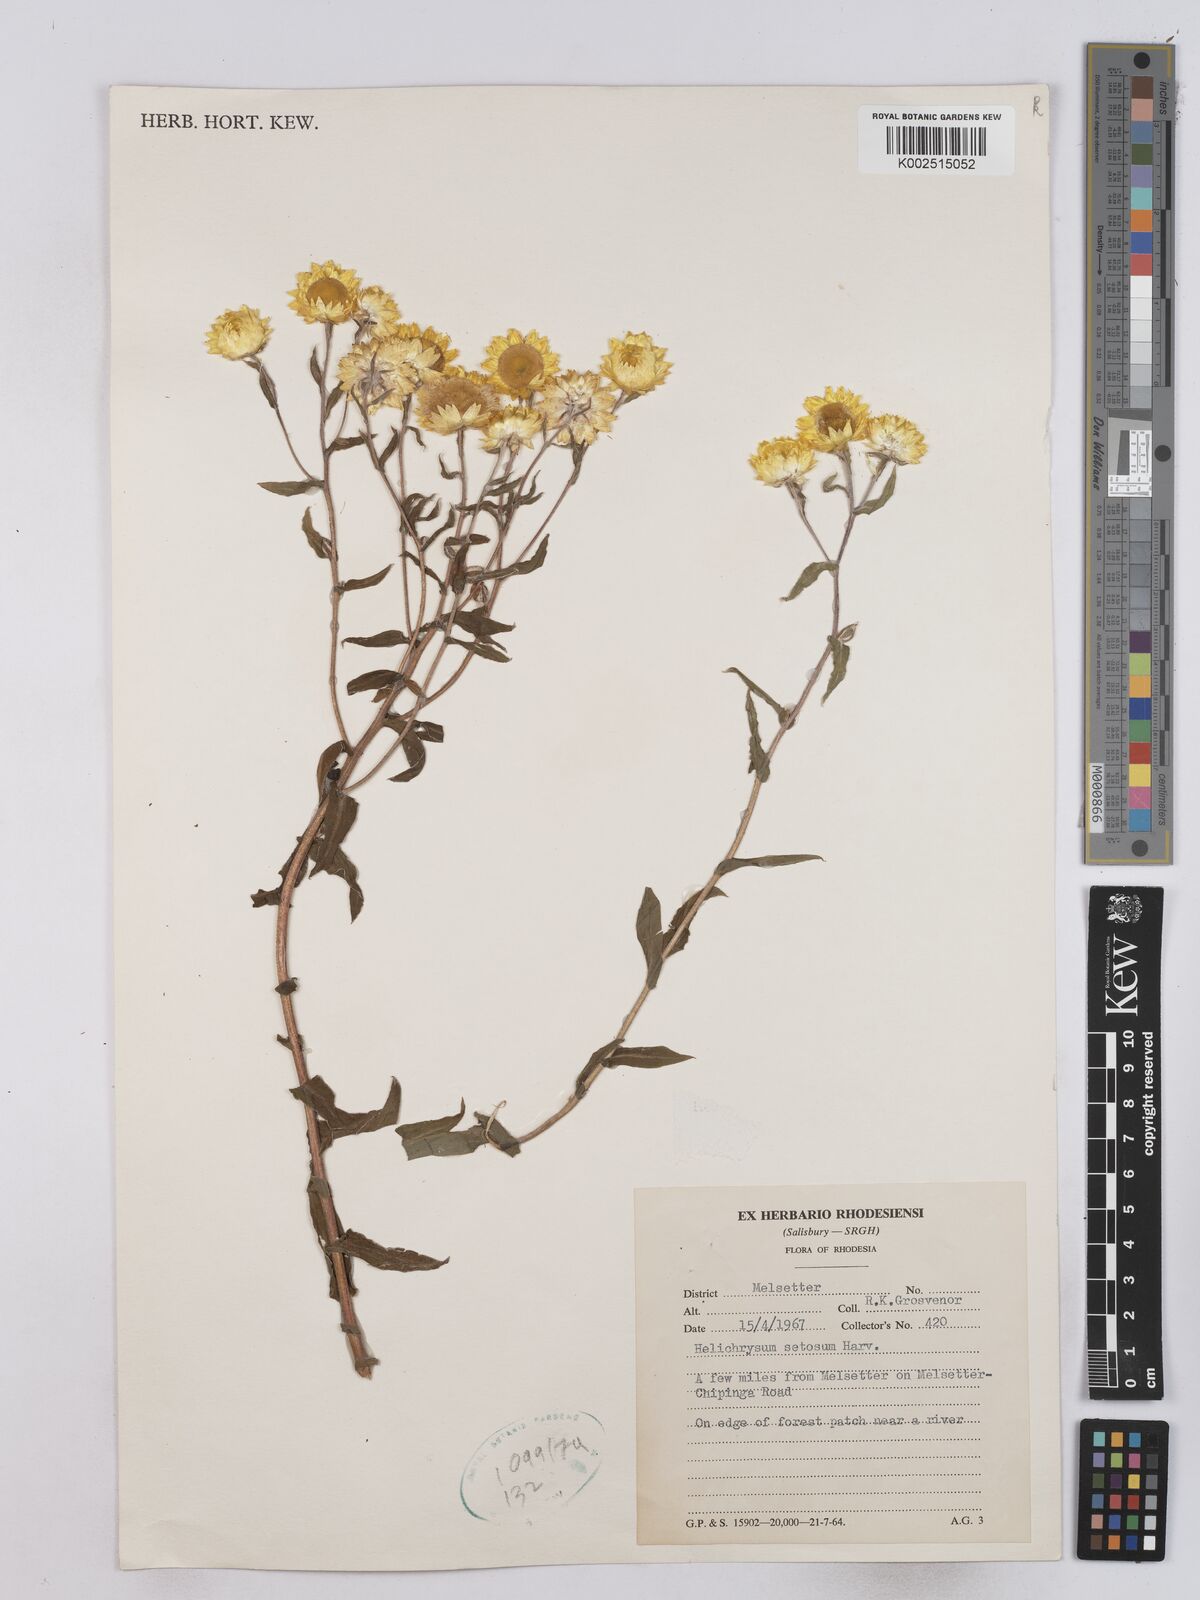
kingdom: Plantae
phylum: Tracheophyta
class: Magnoliopsida
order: Asterales
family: Asteraceae
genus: Helichrysum
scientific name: Helichrysum setosum
